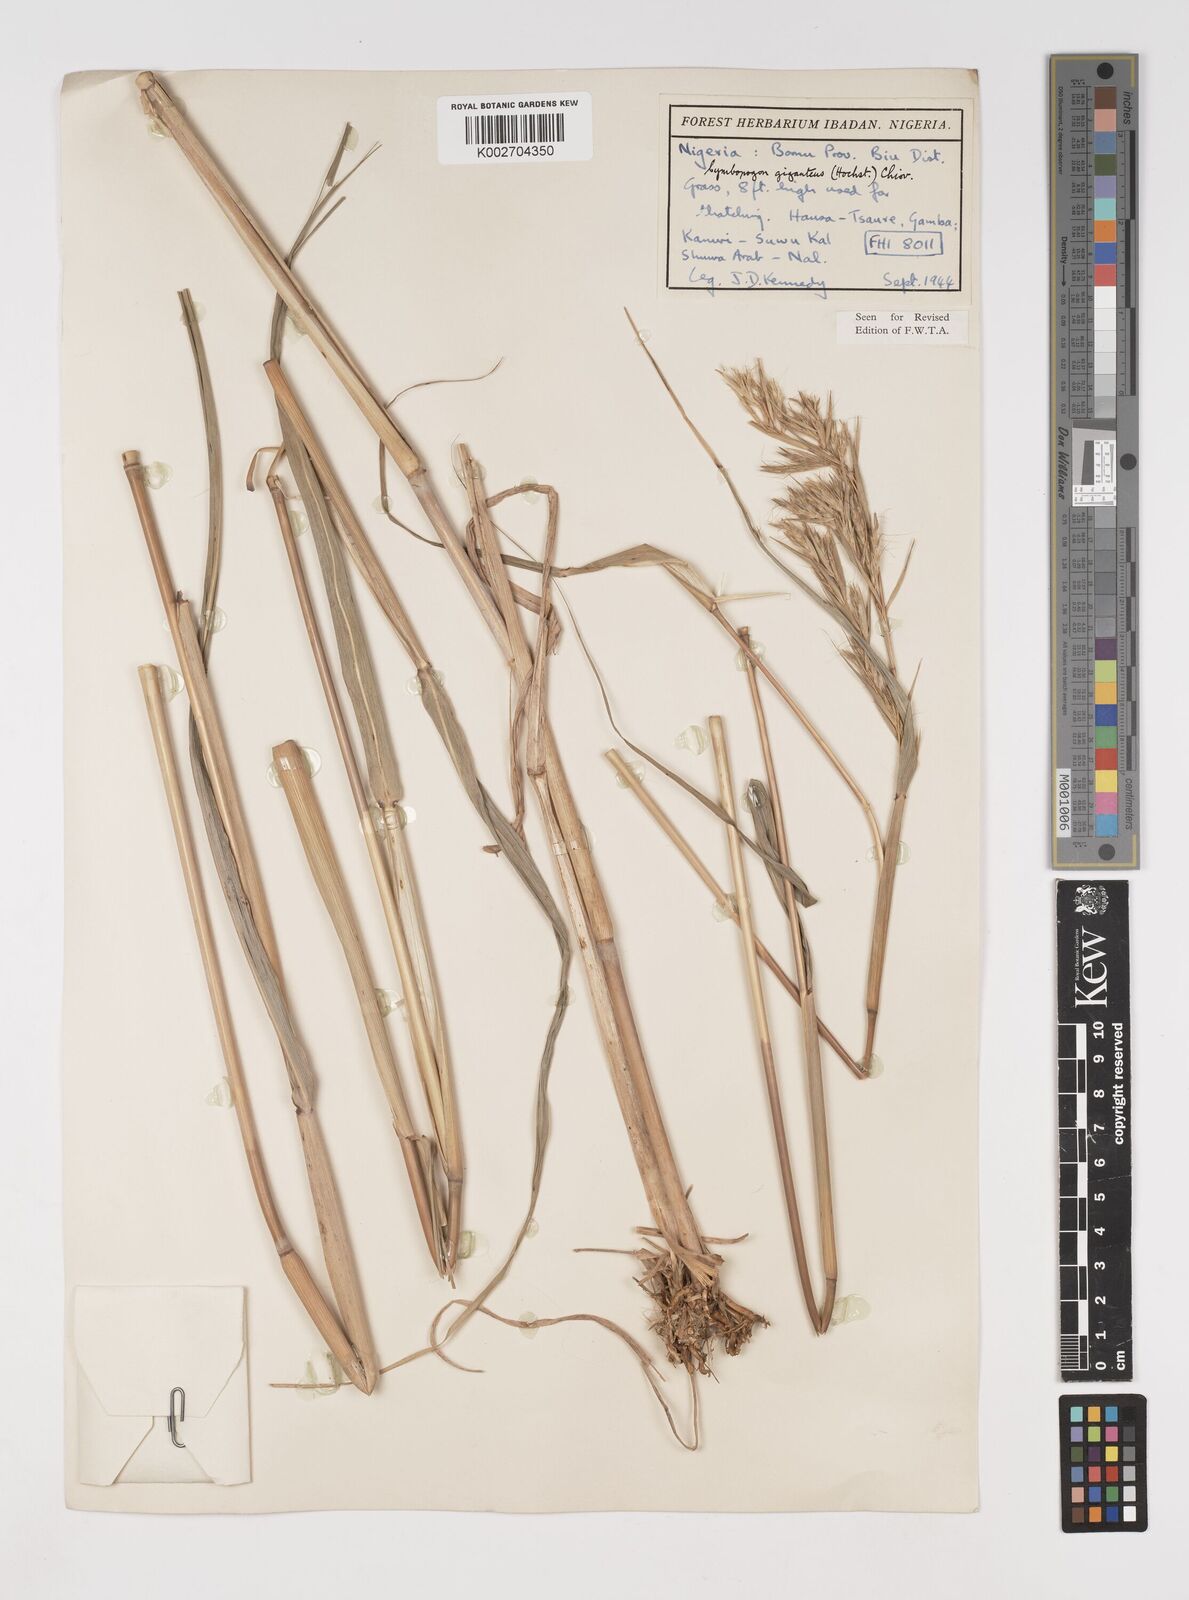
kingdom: Plantae
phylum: Tracheophyta
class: Liliopsida
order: Poales
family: Poaceae
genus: Cymbopogon
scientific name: Cymbopogon giganteus
